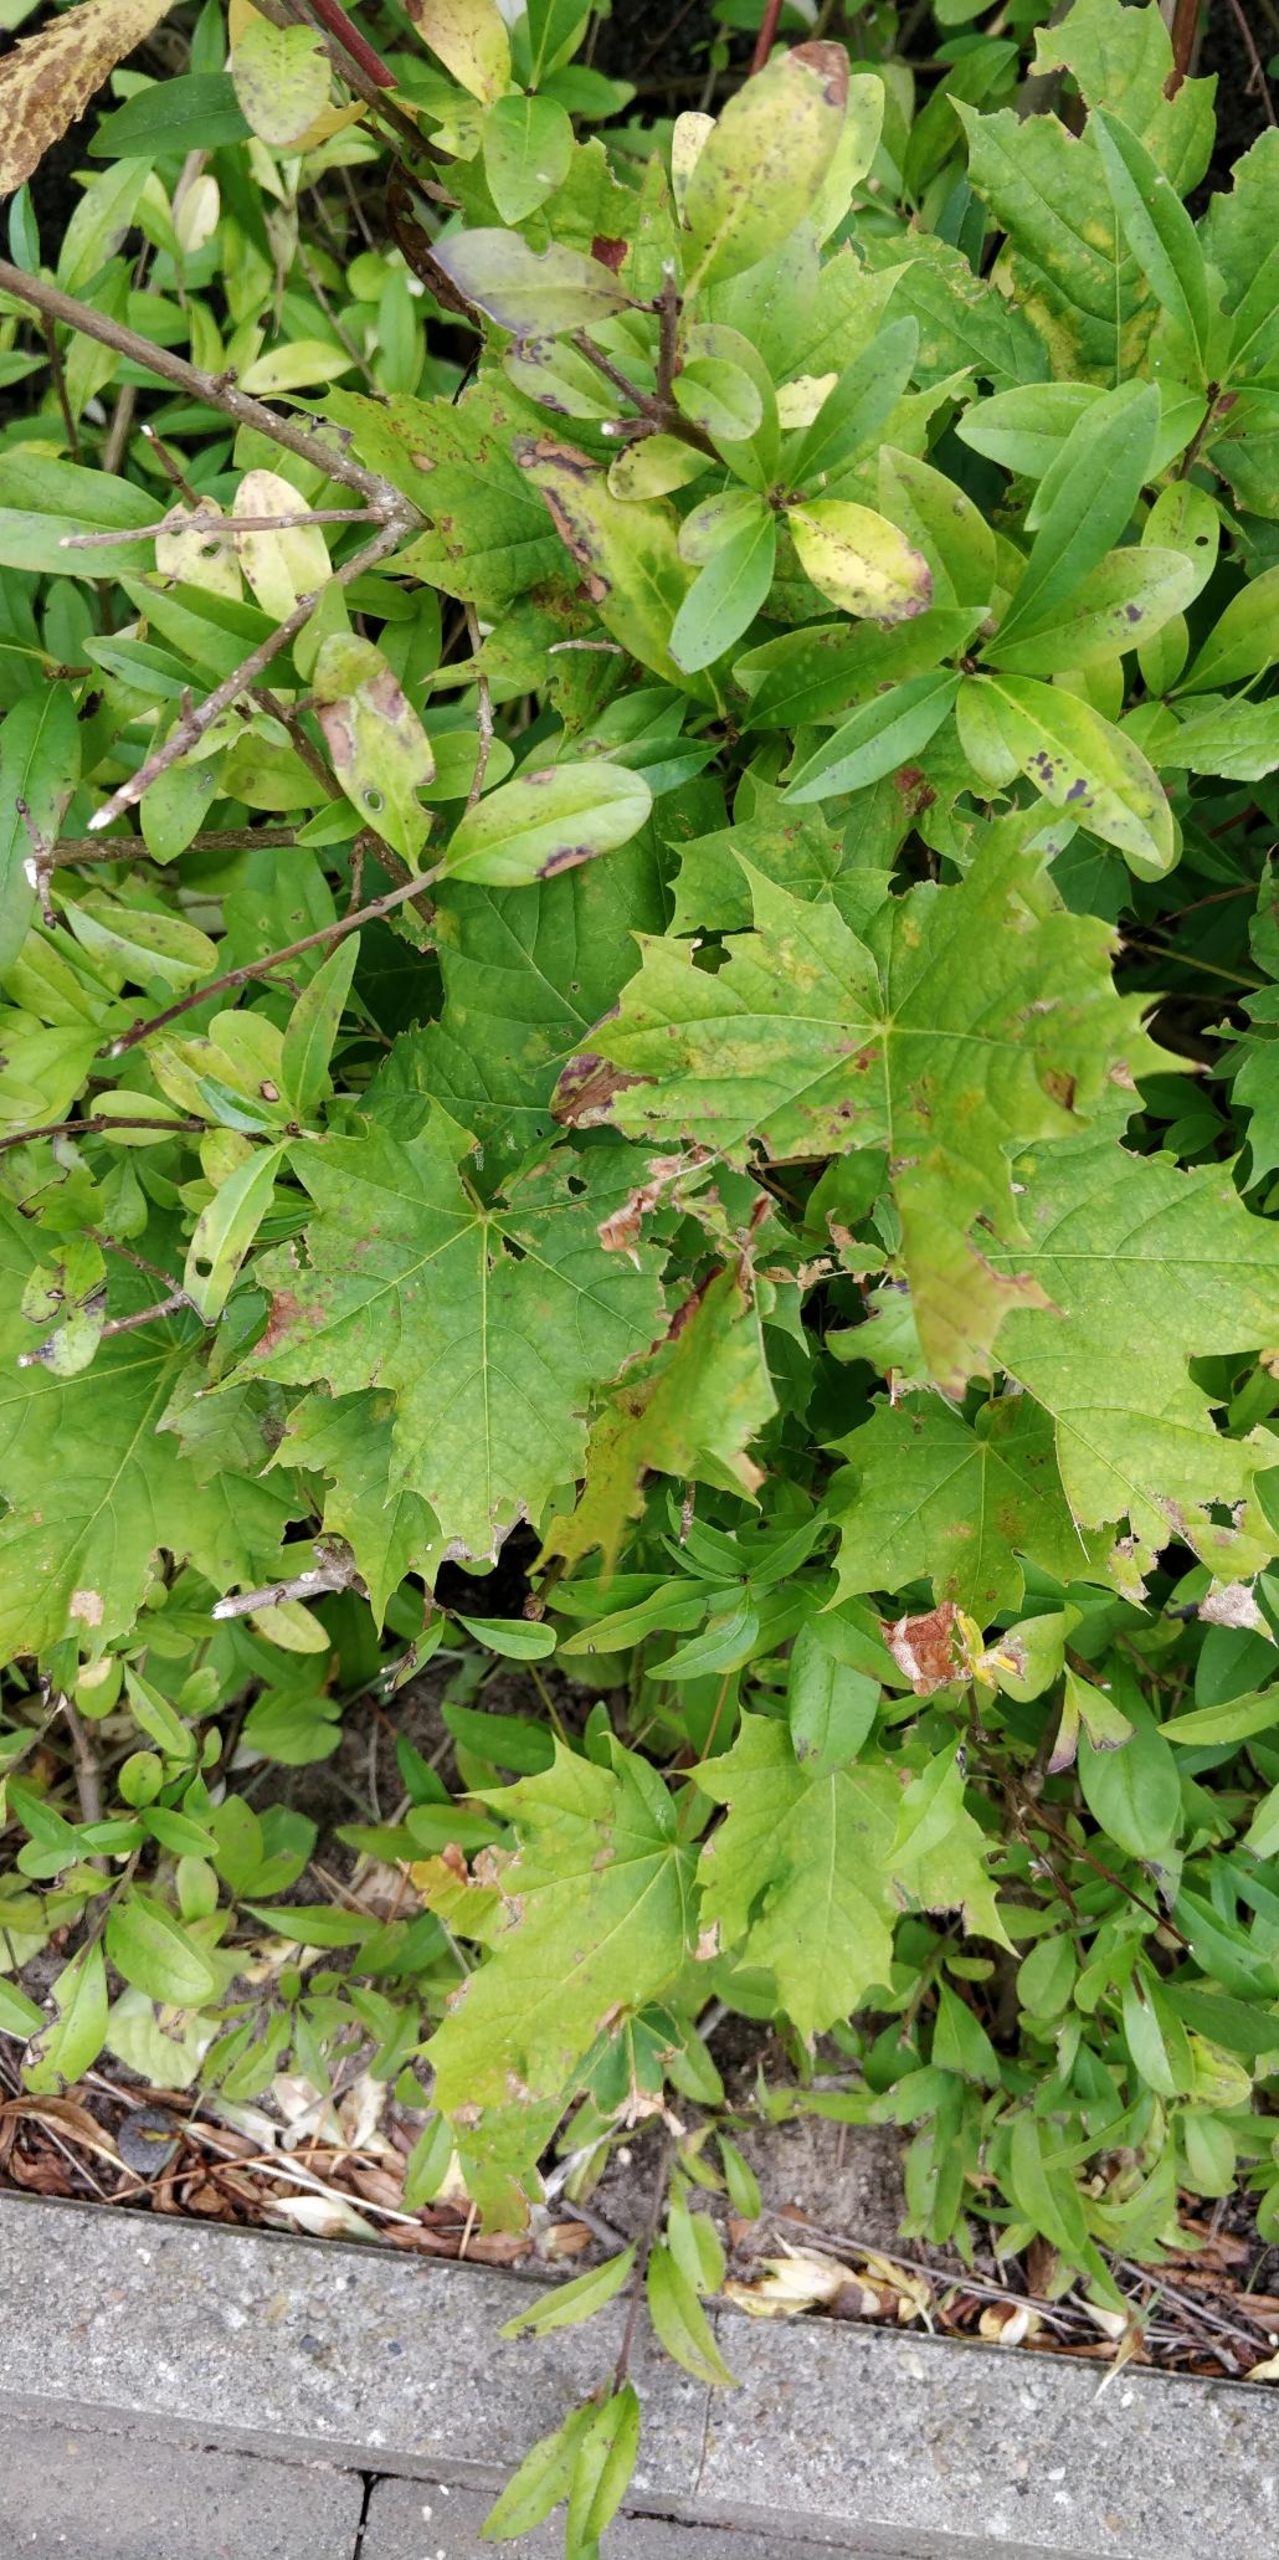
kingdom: Plantae
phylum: Tracheophyta
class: Magnoliopsida
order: Sapindales
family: Sapindaceae
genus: Acer
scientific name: Acer platanoides
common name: Spids-løn
